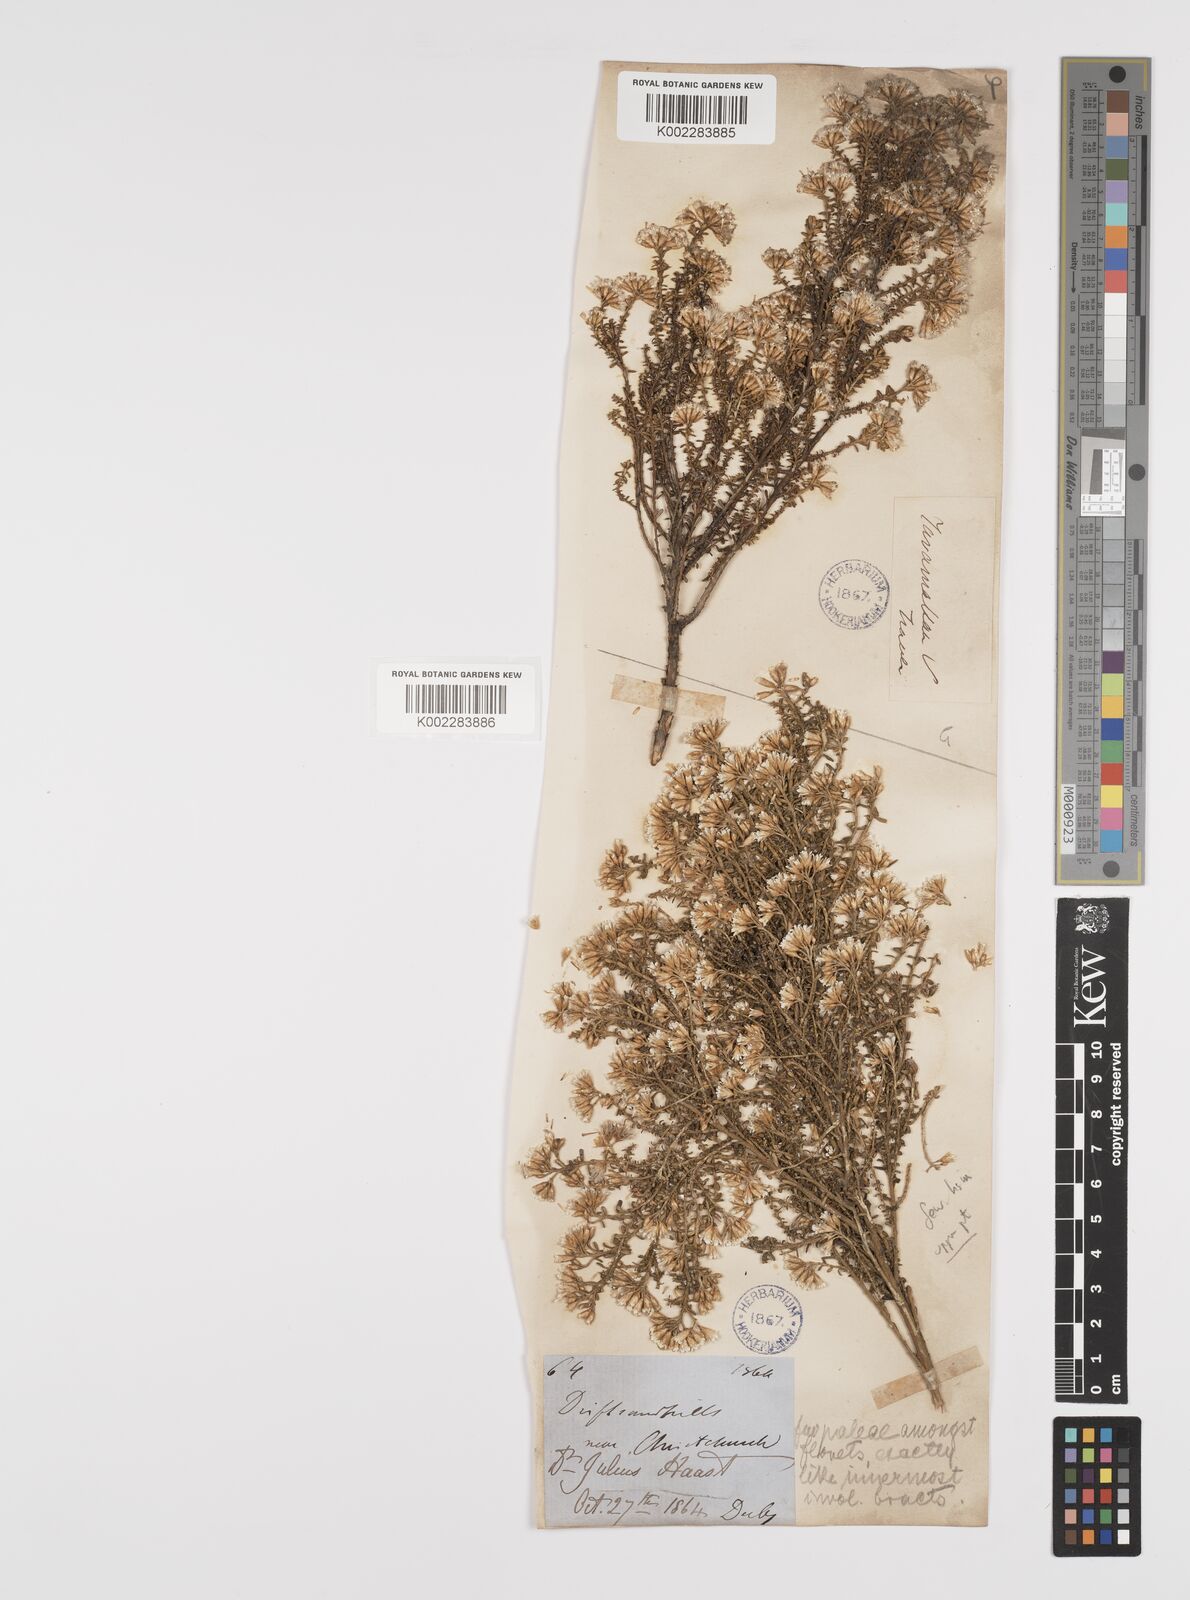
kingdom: Plantae
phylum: Tracheophyta
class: Magnoliopsida
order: Asterales
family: Asteraceae
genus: Ozothamnus
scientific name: Ozothamnus leptophyllus
